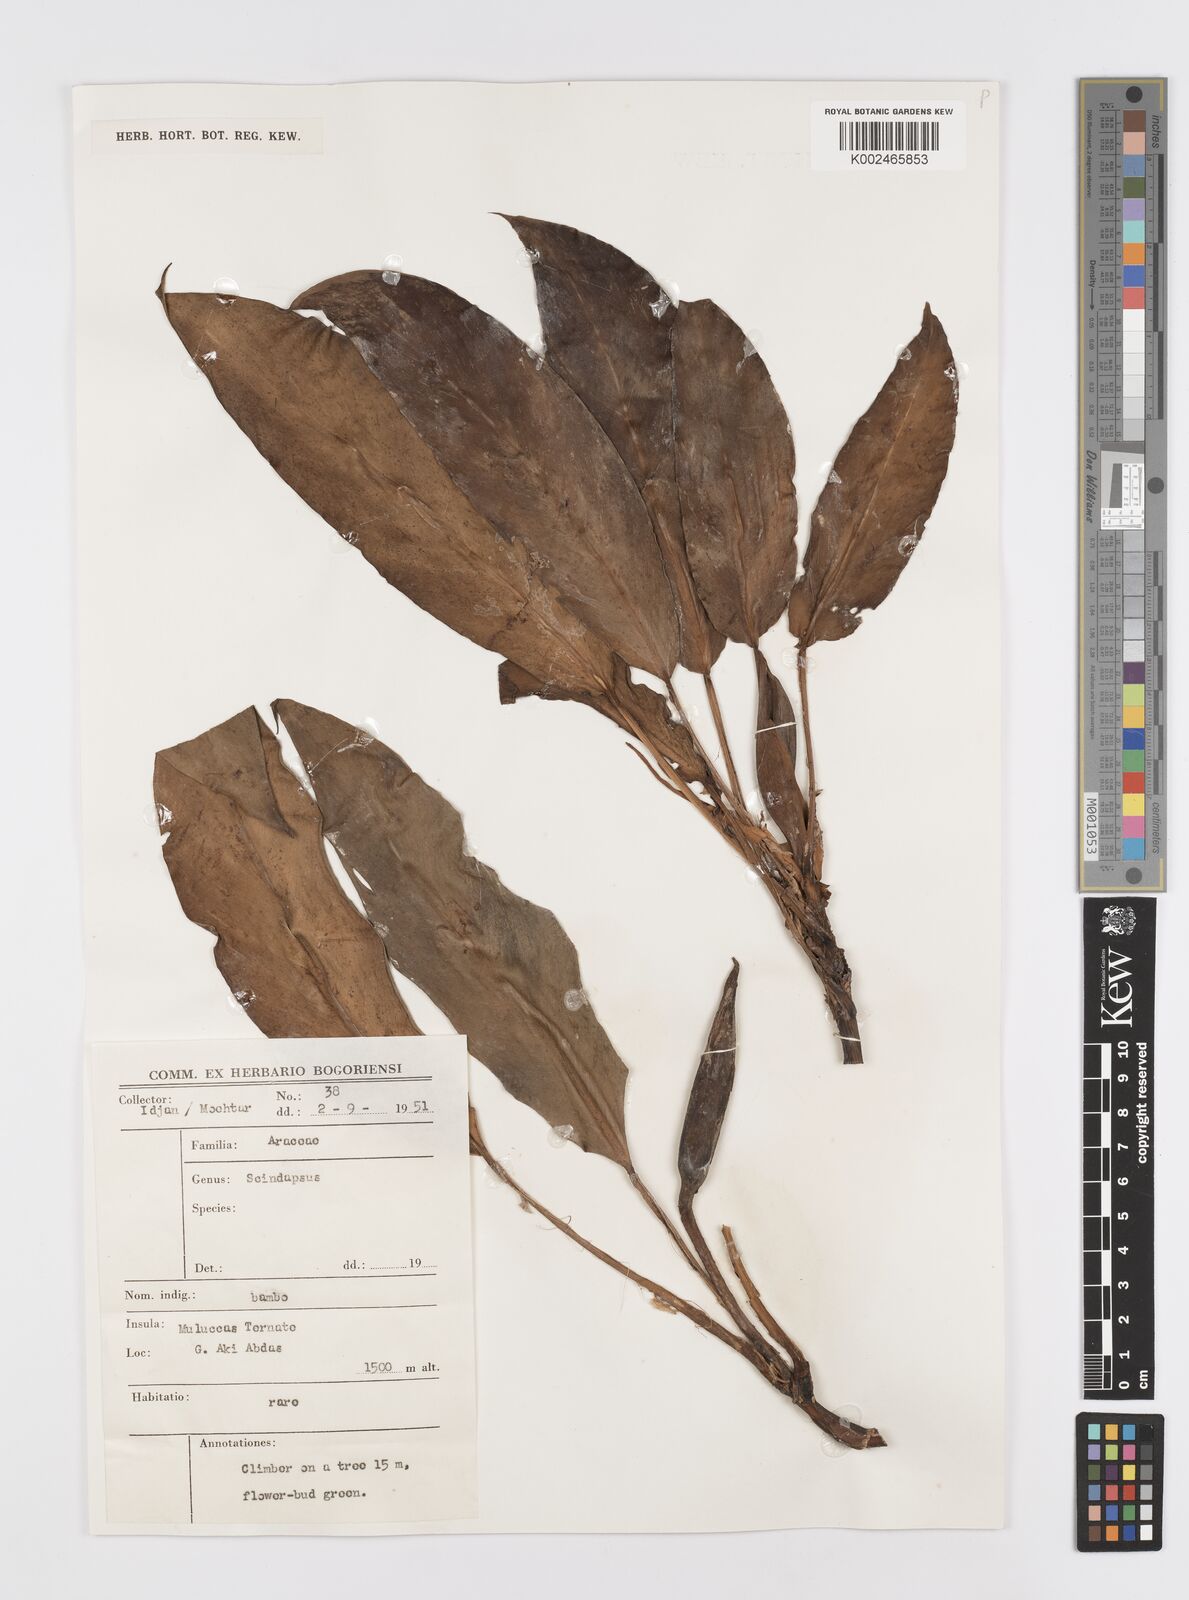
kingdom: Plantae
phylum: Tracheophyta
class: Liliopsida
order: Alismatales
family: Araceae
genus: Rhaphidophora
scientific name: Rhaphidophora oligosperma
